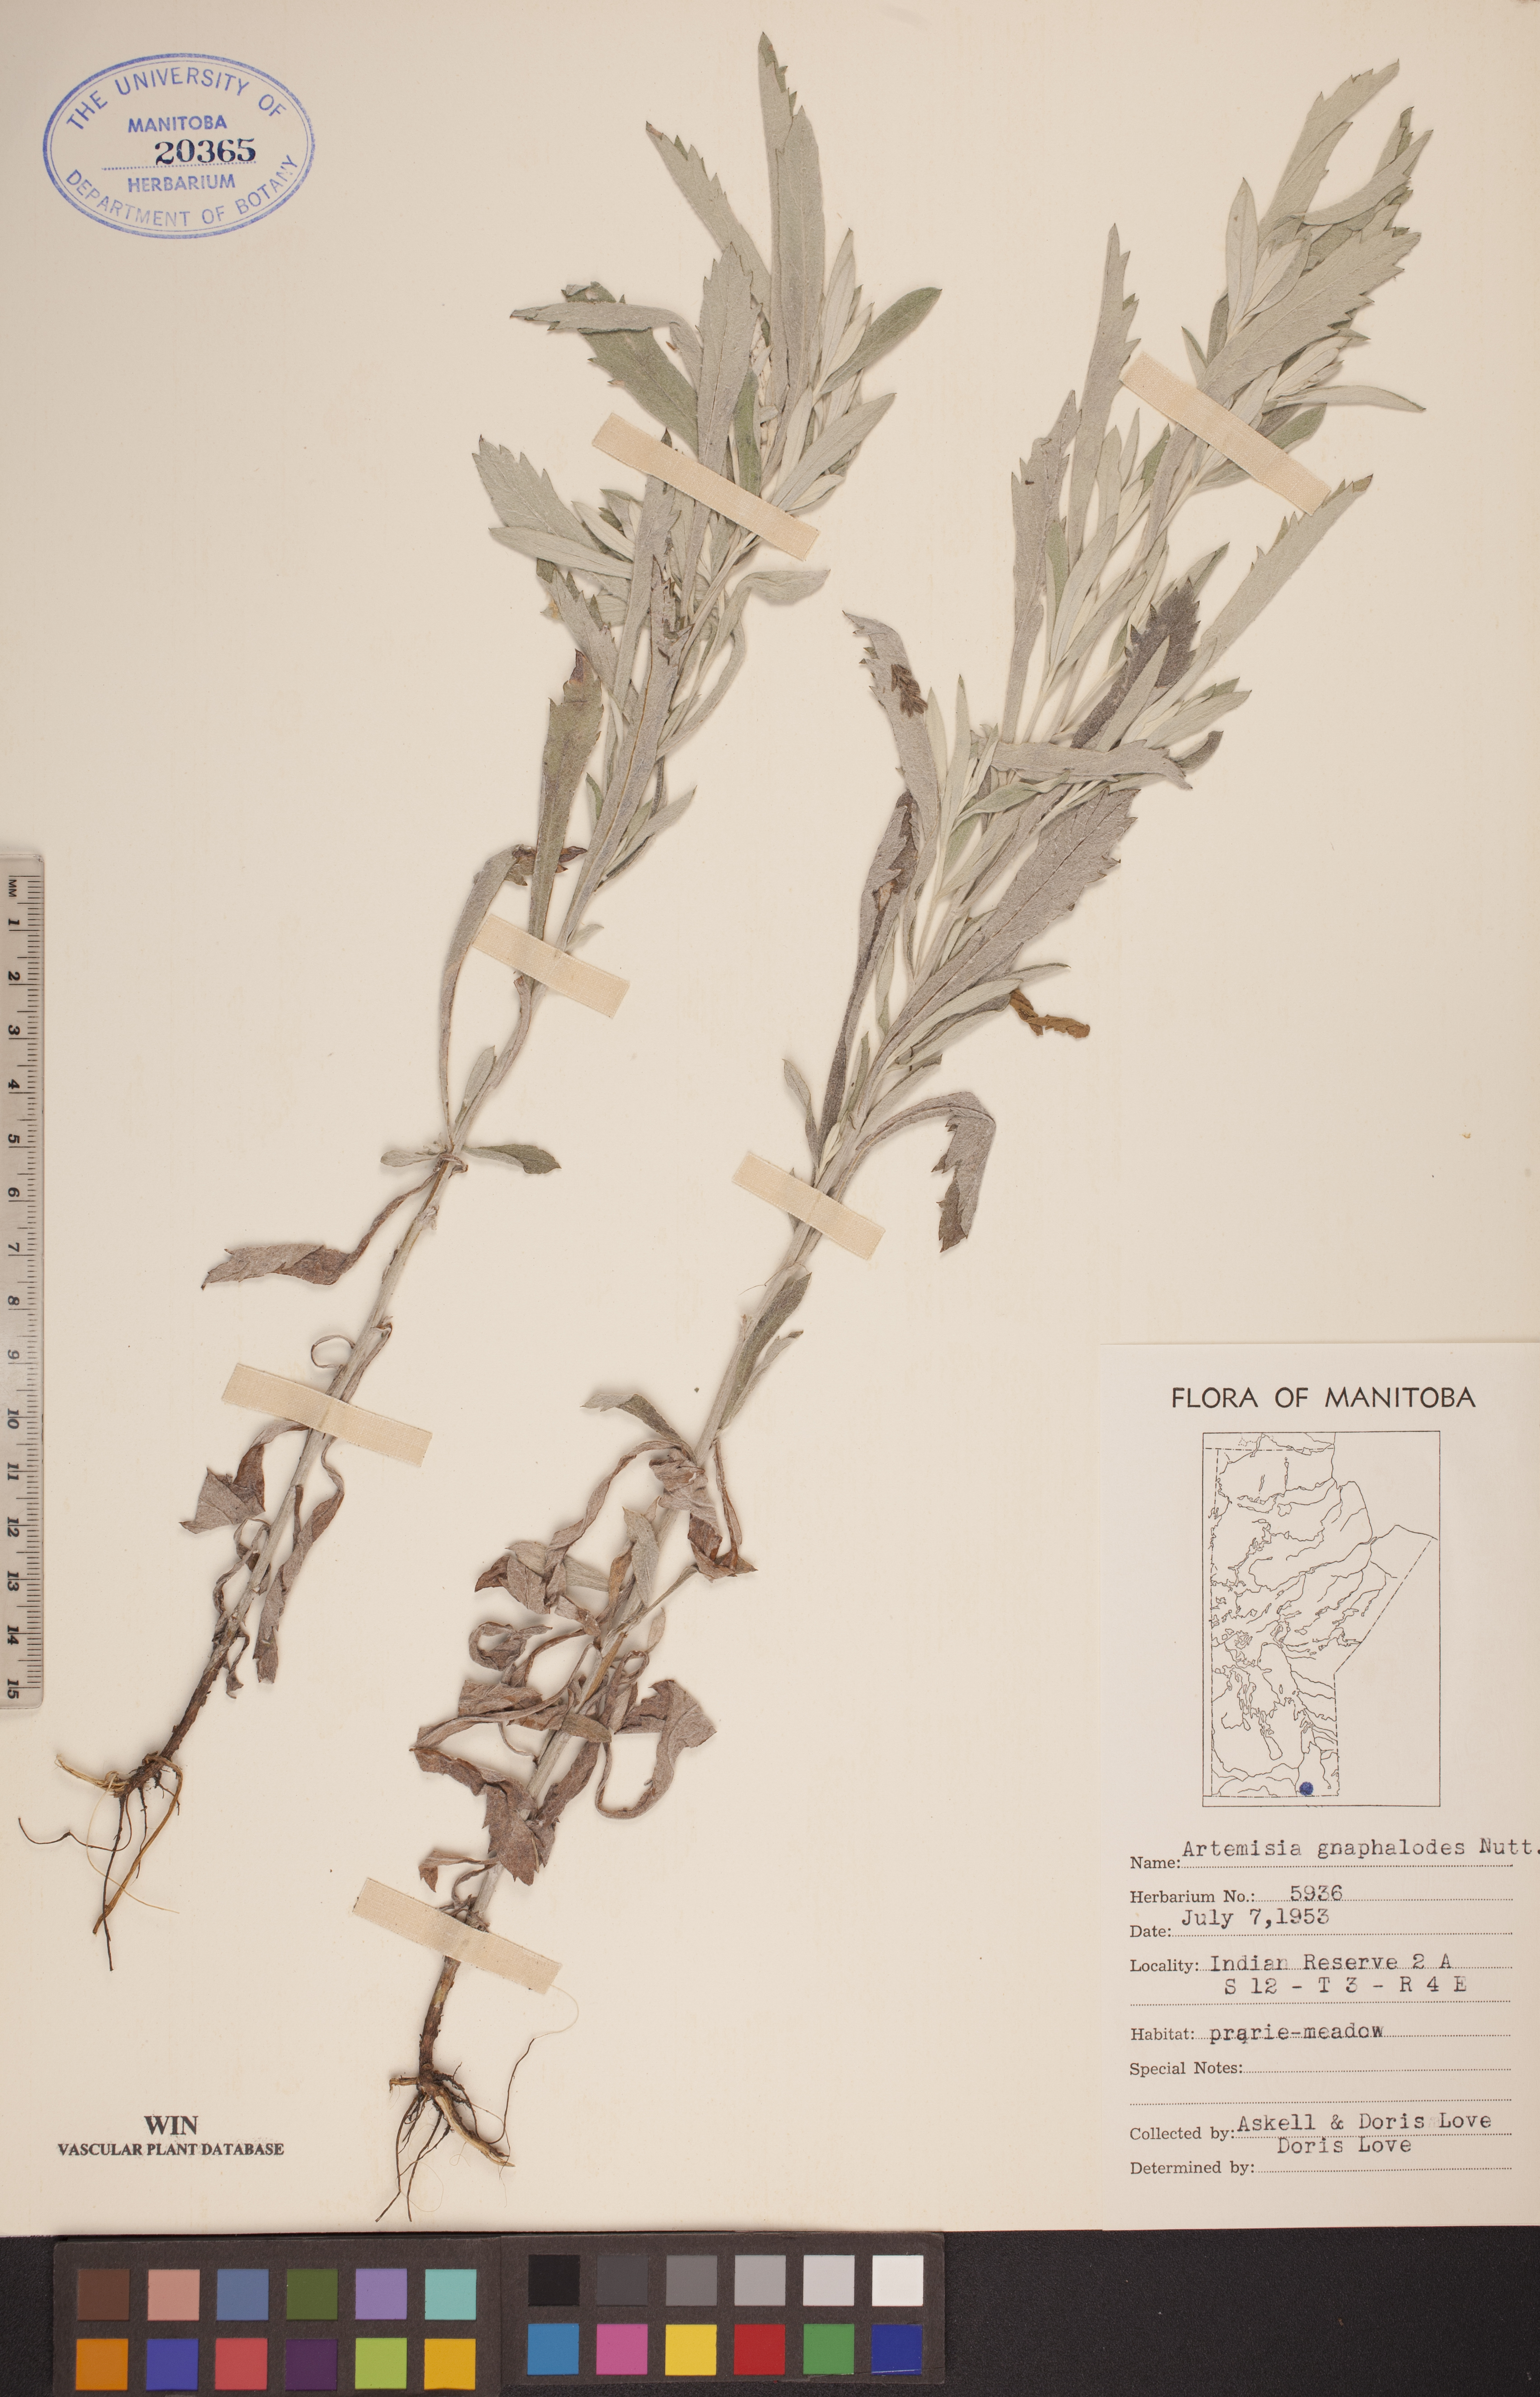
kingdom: Plantae
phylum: Tracheophyta
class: Magnoliopsida
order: Asterales
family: Asteraceae
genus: Artemisia
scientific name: Artemisia ludoviciana
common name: Western mugwort
